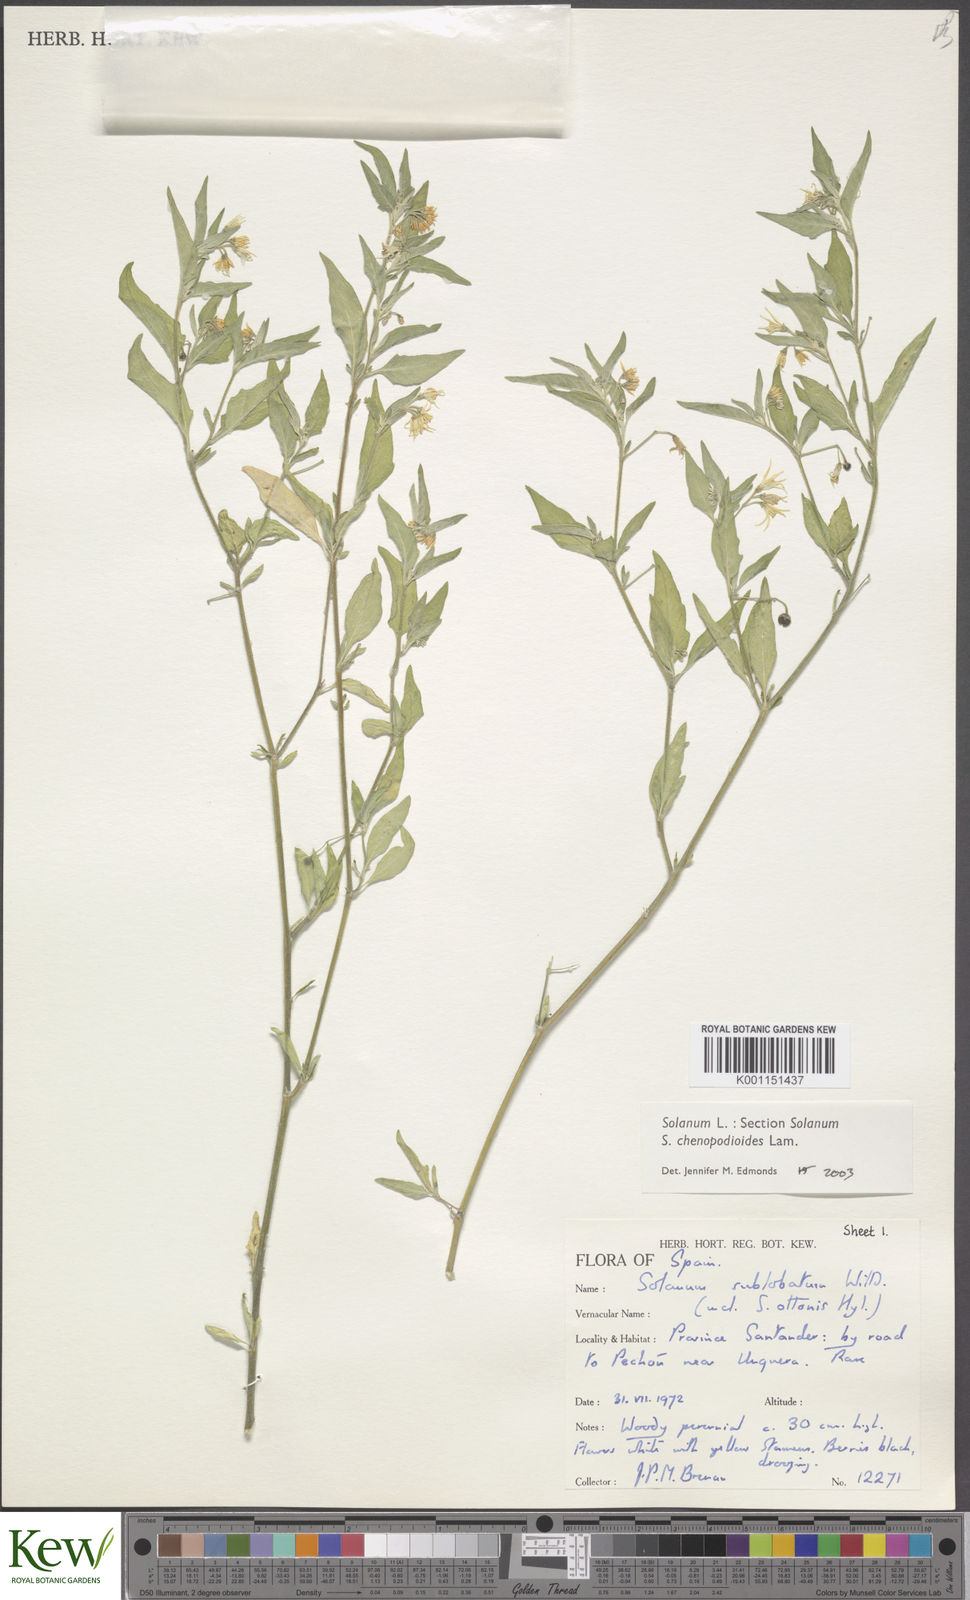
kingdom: Plantae
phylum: Tracheophyta
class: Magnoliopsida
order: Solanales
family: Solanaceae
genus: Solanum
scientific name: Solanum chenopodioides
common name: Tall nightshade
